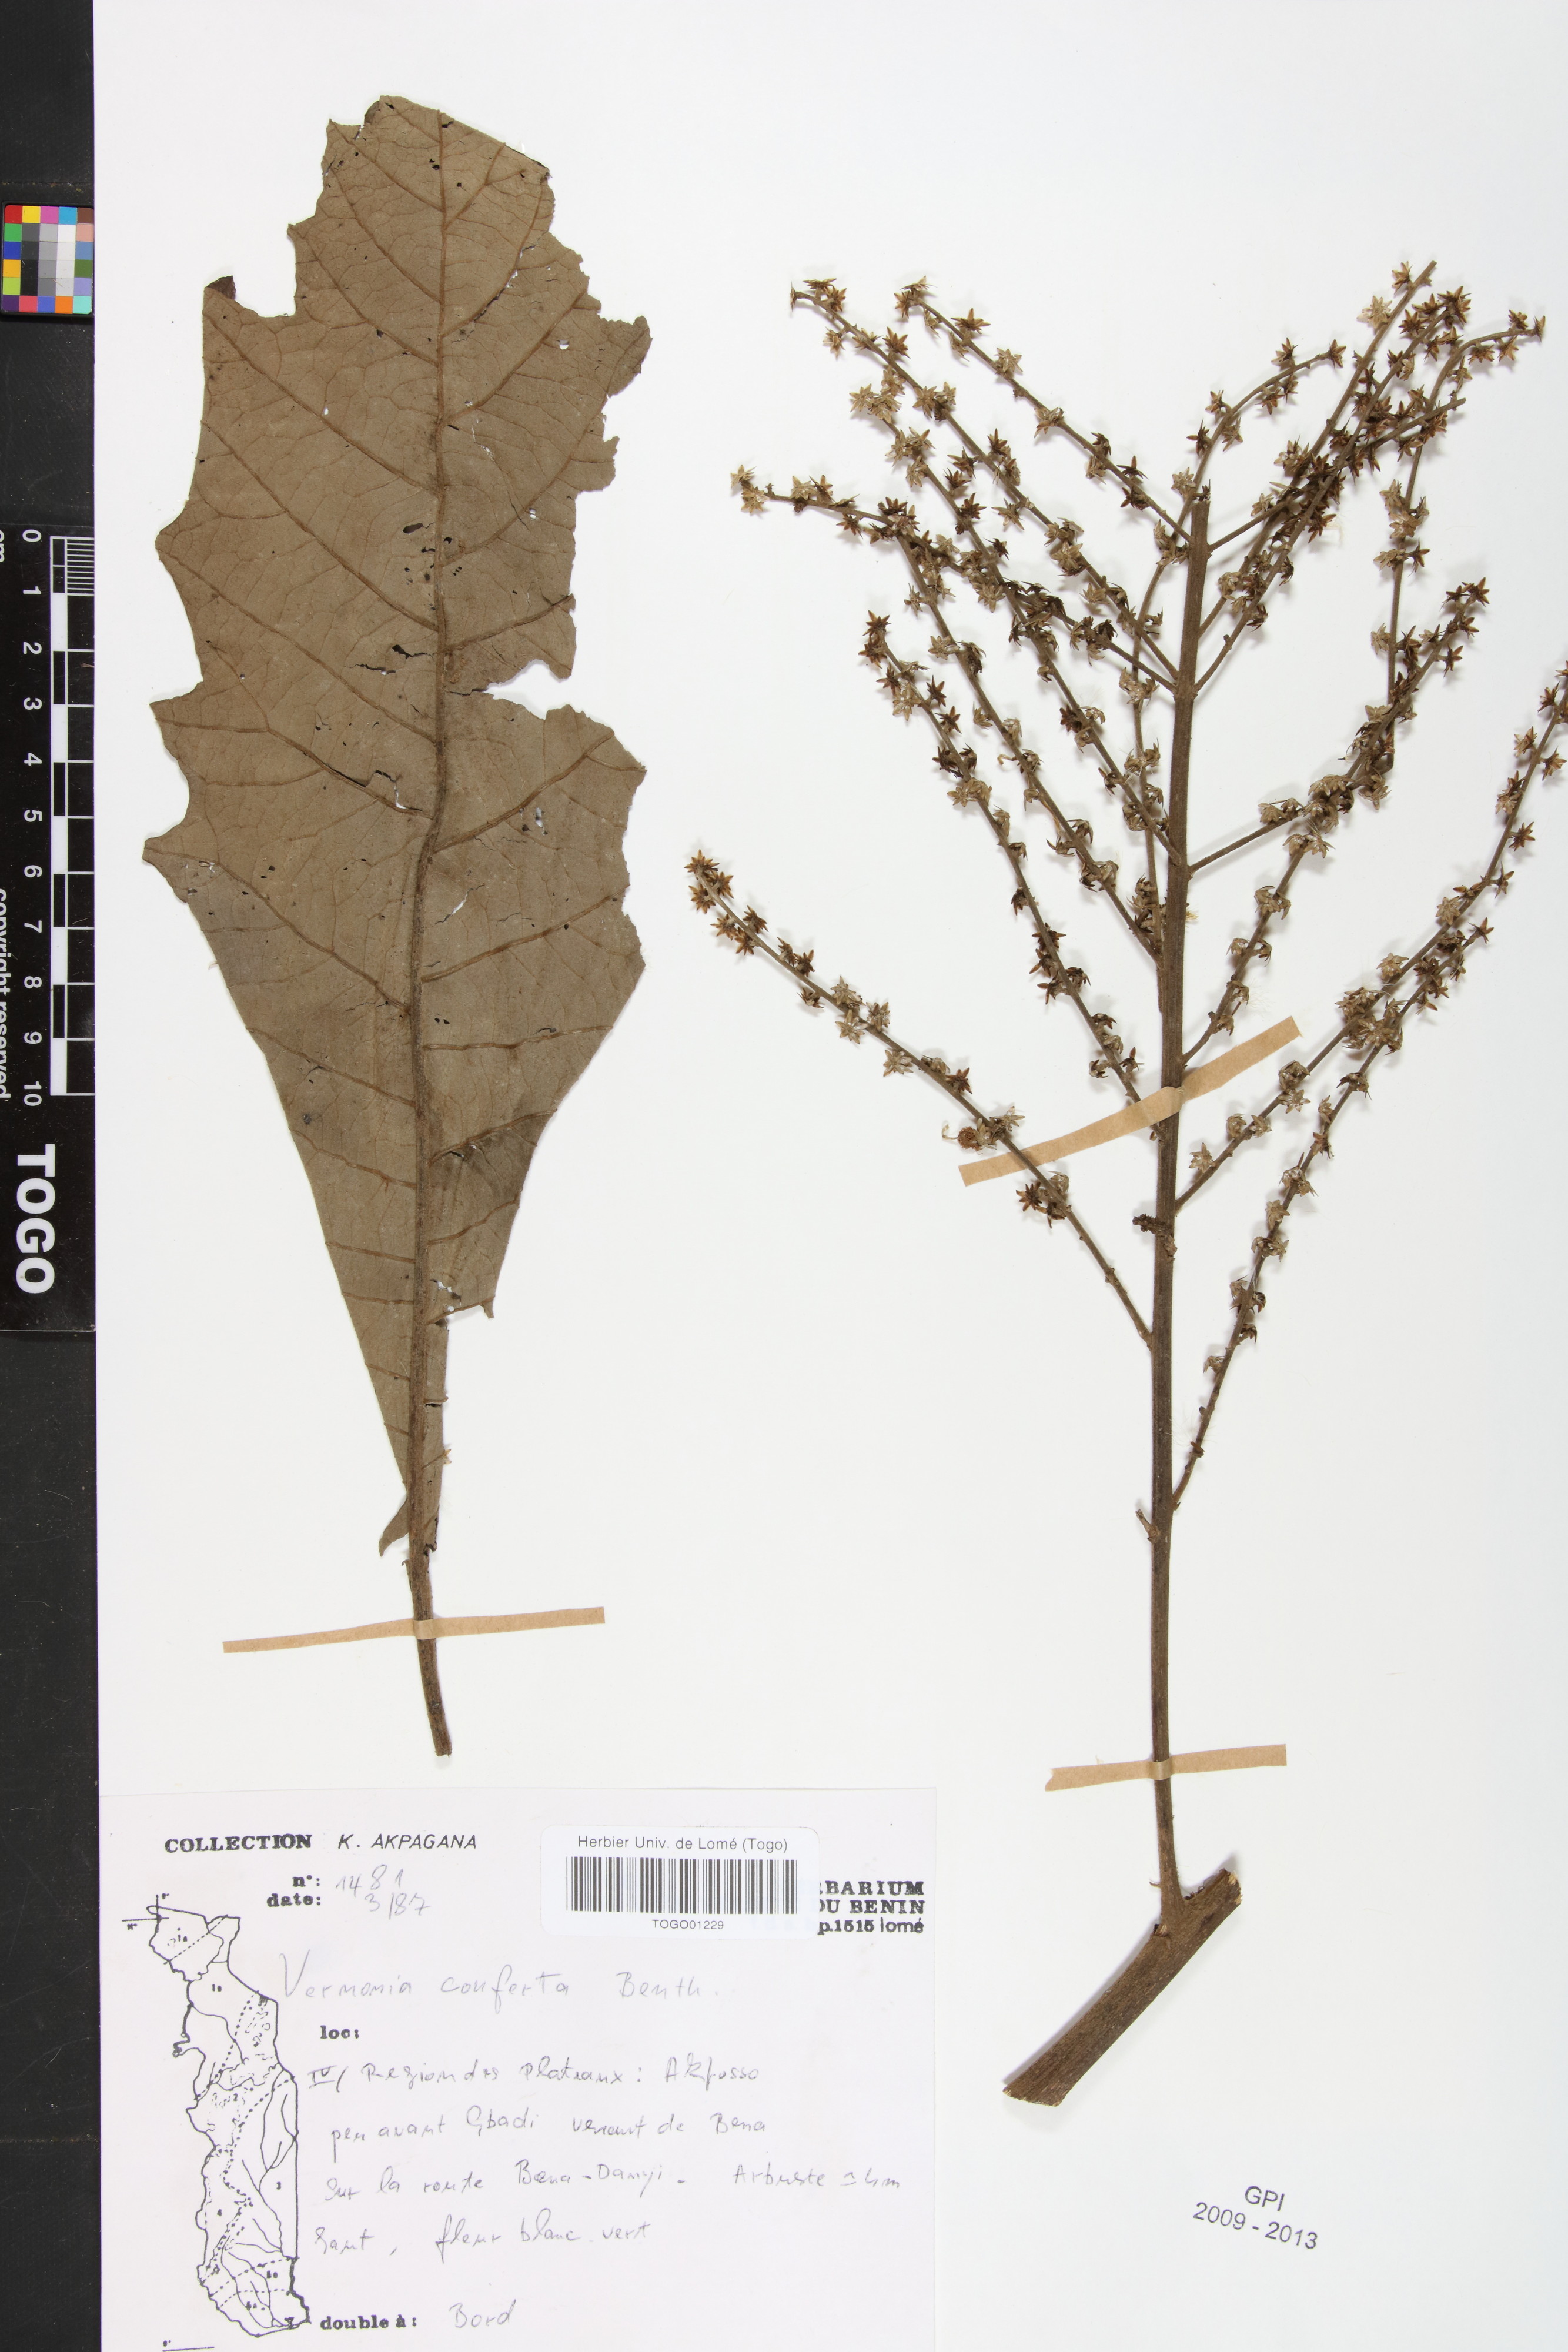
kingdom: Plantae
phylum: Tracheophyta
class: Magnoliopsida
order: Asterales
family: Asteraceae
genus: Monosis
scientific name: Monosis conferta
